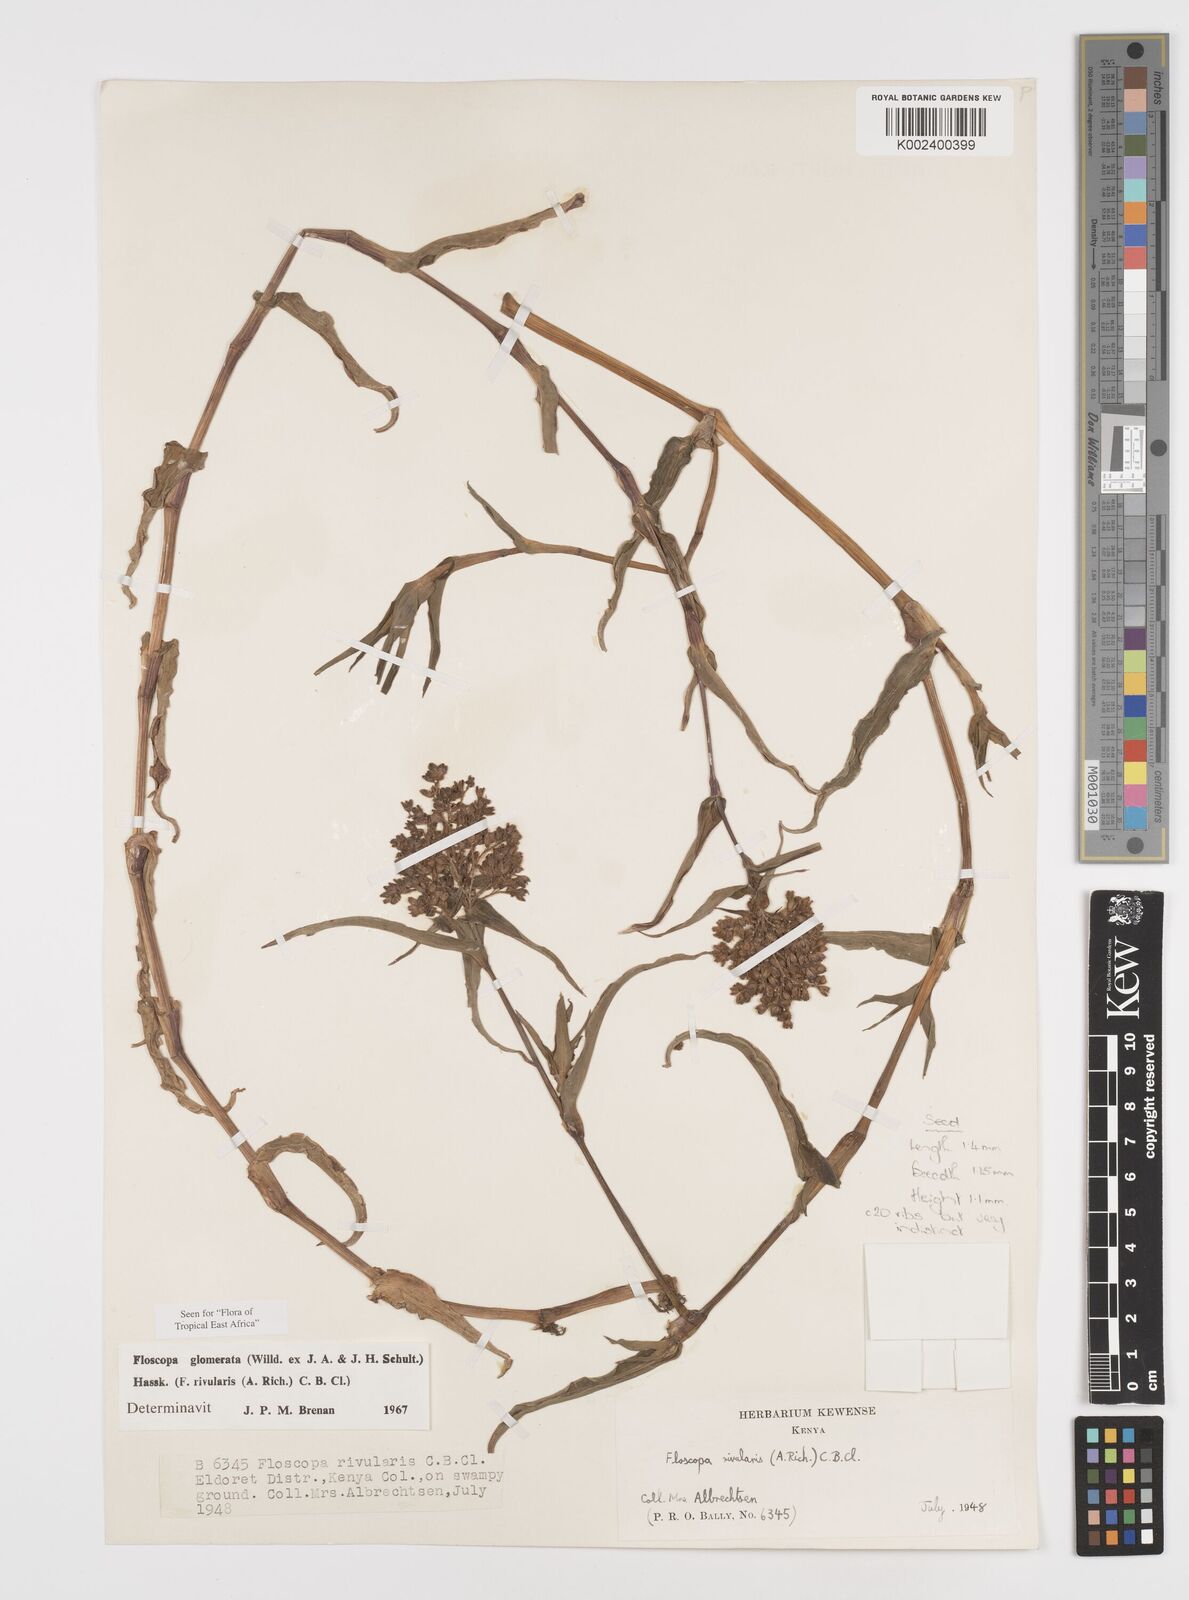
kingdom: Plantae
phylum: Tracheophyta
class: Liliopsida
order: Commelinales
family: Commelinaceae
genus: Floscopa
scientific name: Floscopa glomerata
